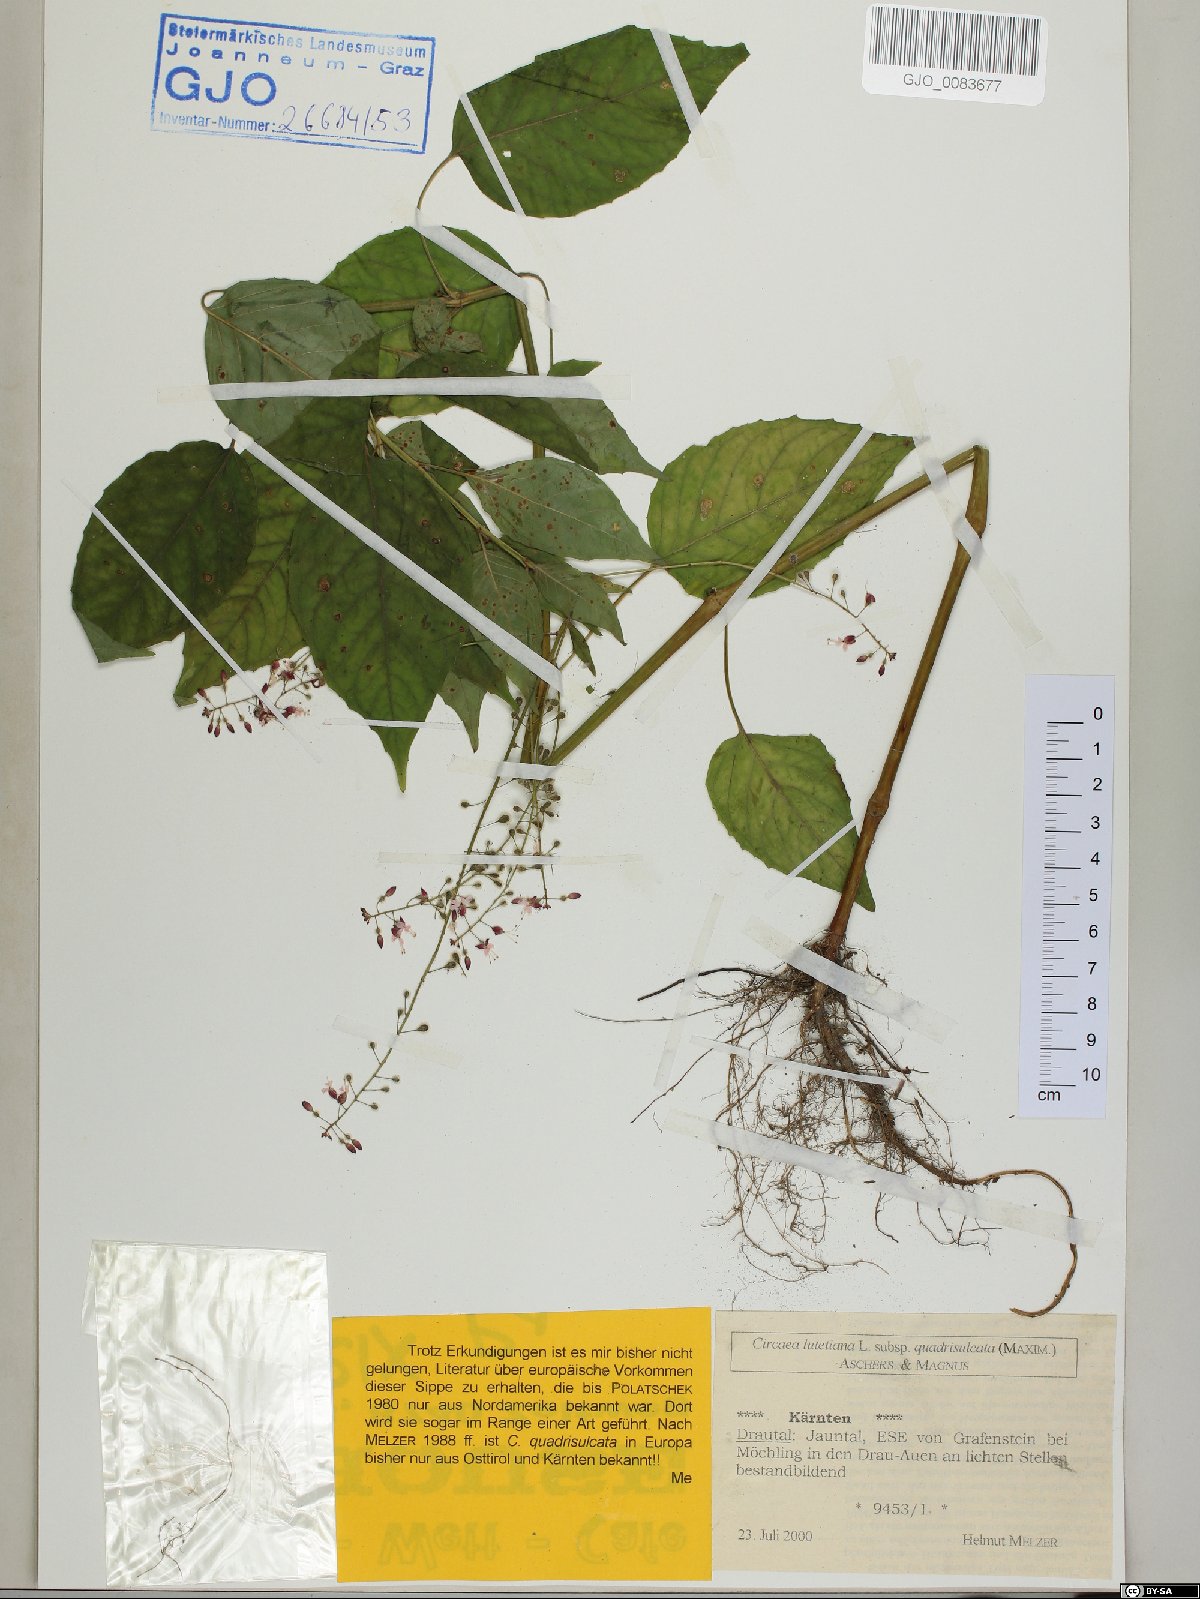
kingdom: Plantae
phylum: Tracheophyta
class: Magnoliopsida
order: Myrtales
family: Onagraceae
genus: Circaea
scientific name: Circaea canadensis
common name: Broad-leaved enchanter's nightshade
